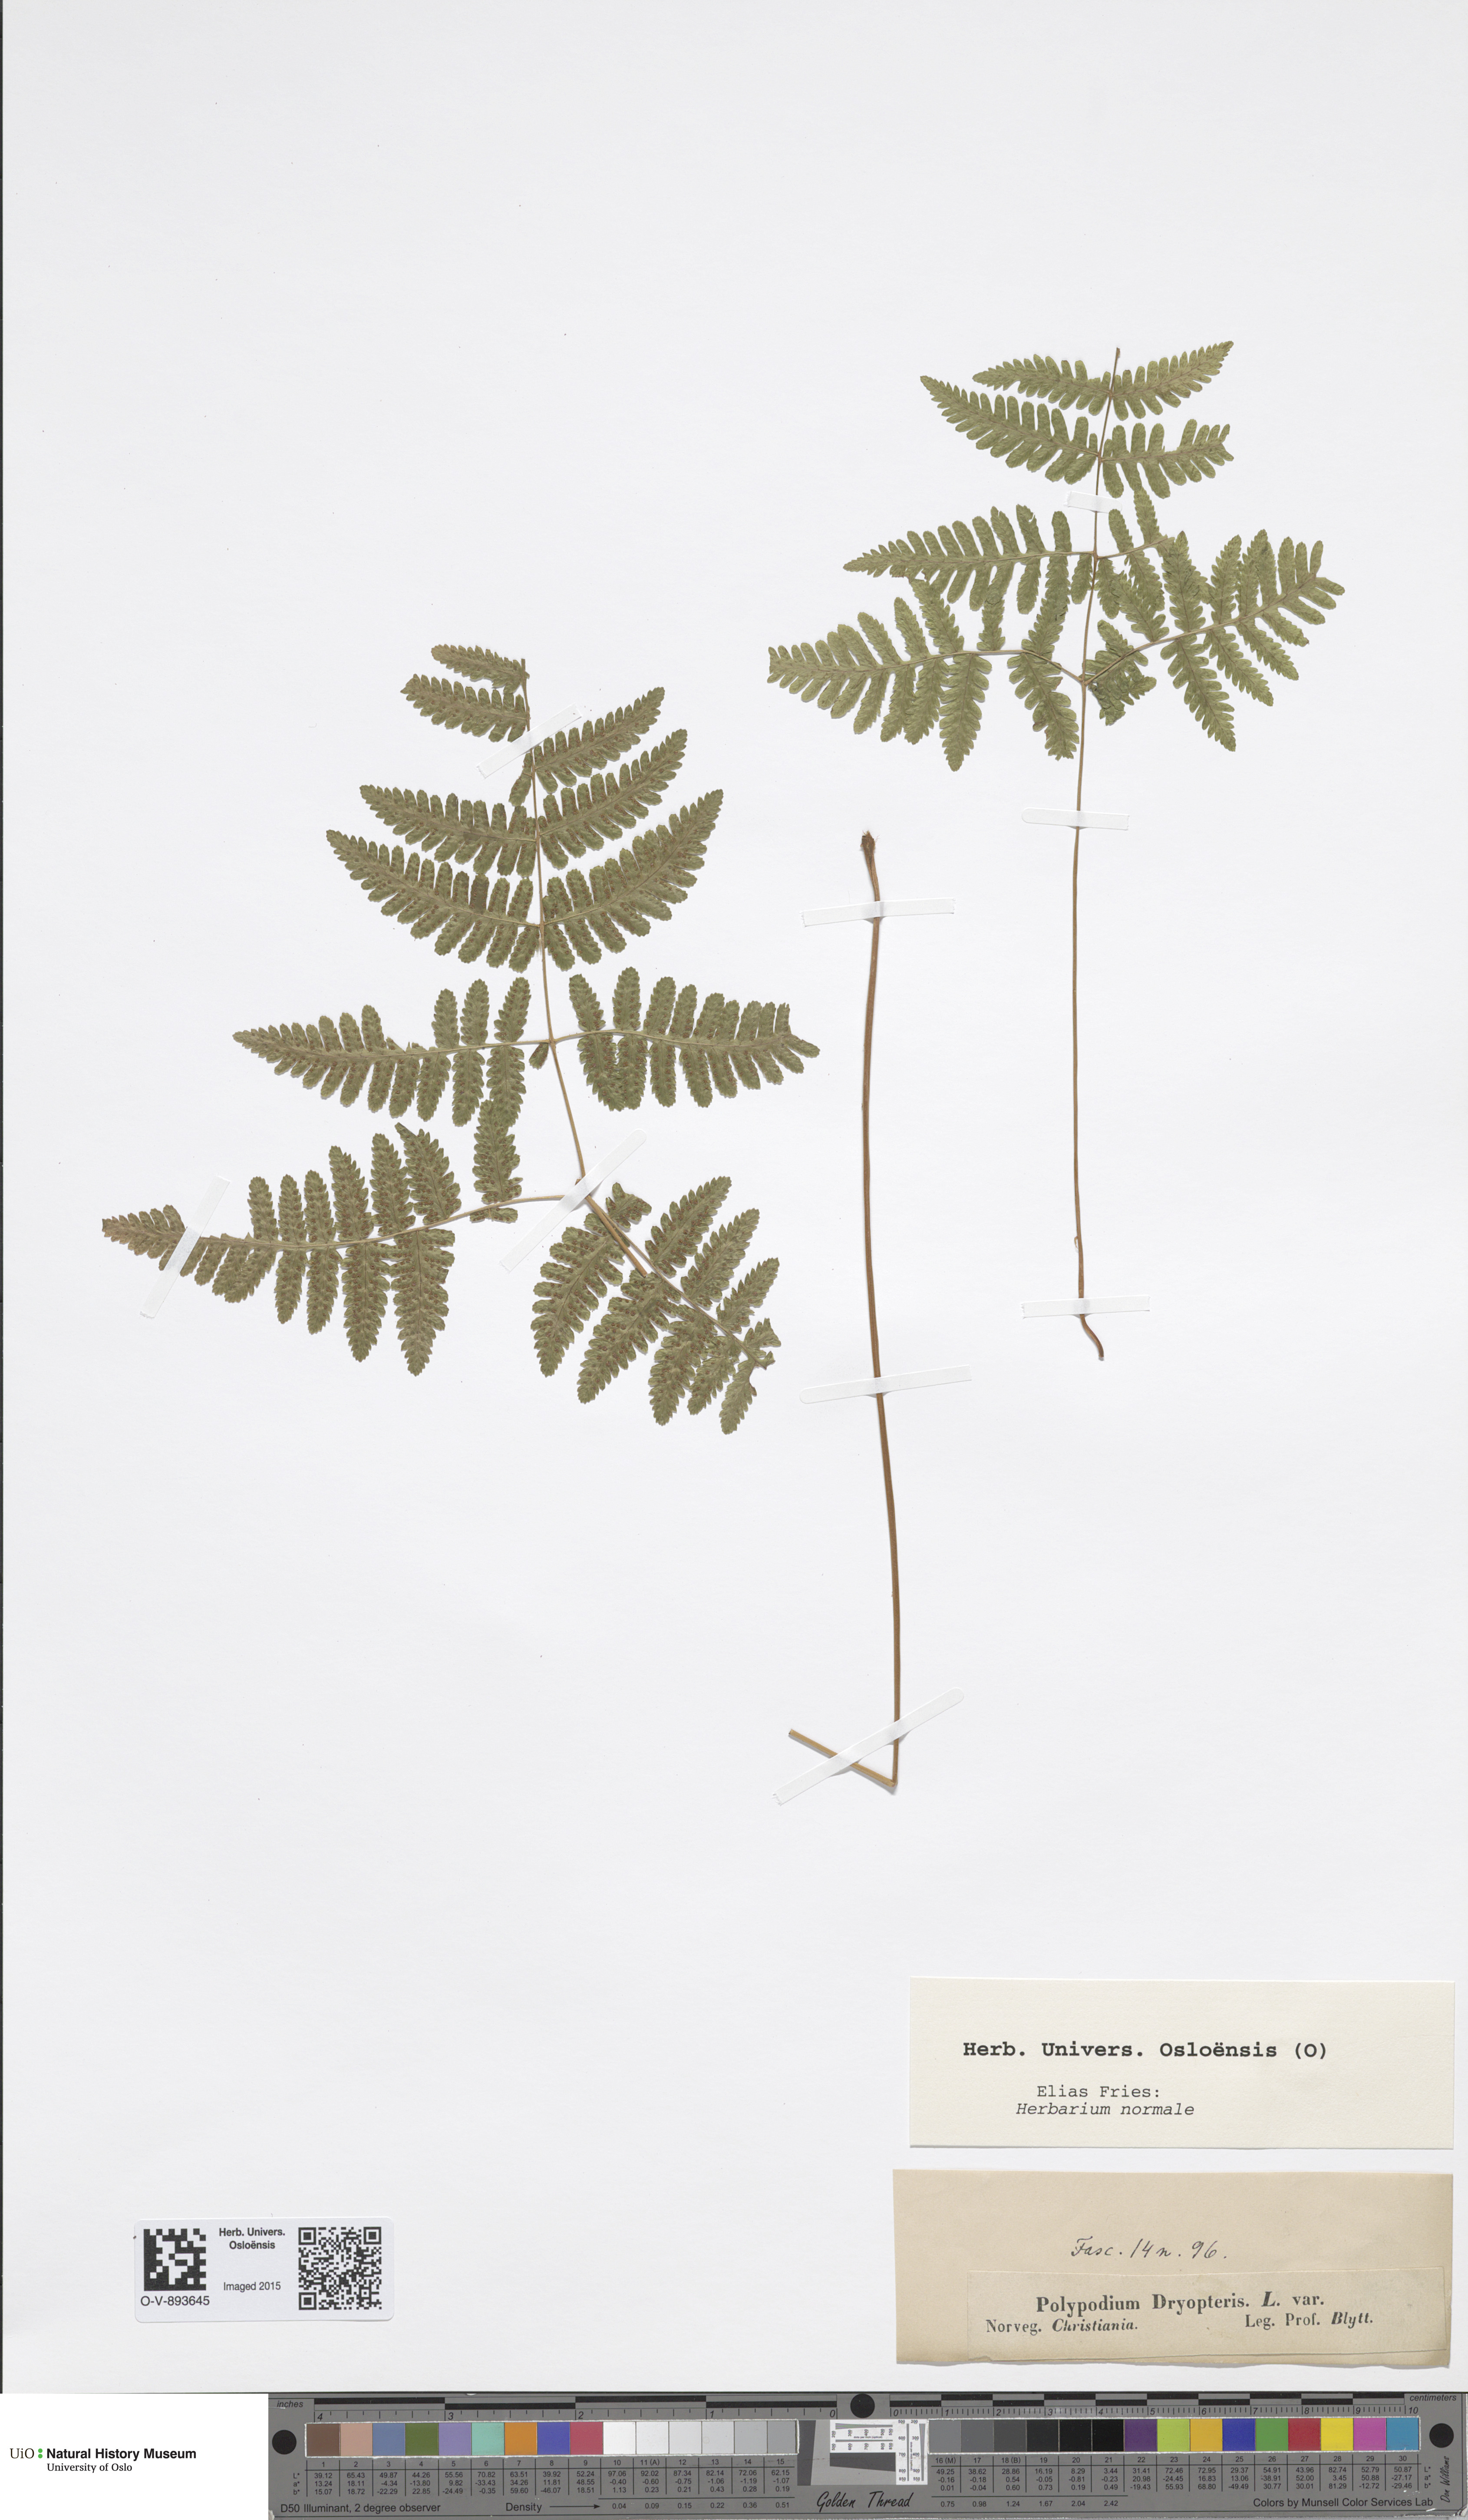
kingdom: Plantae
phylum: Tracheophyta
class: Polypodiopsida
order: Polypodiales
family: Cystopteridaceae
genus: Gymnocarpium
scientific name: Gymnocarpium dryopteris
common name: Oak fern
